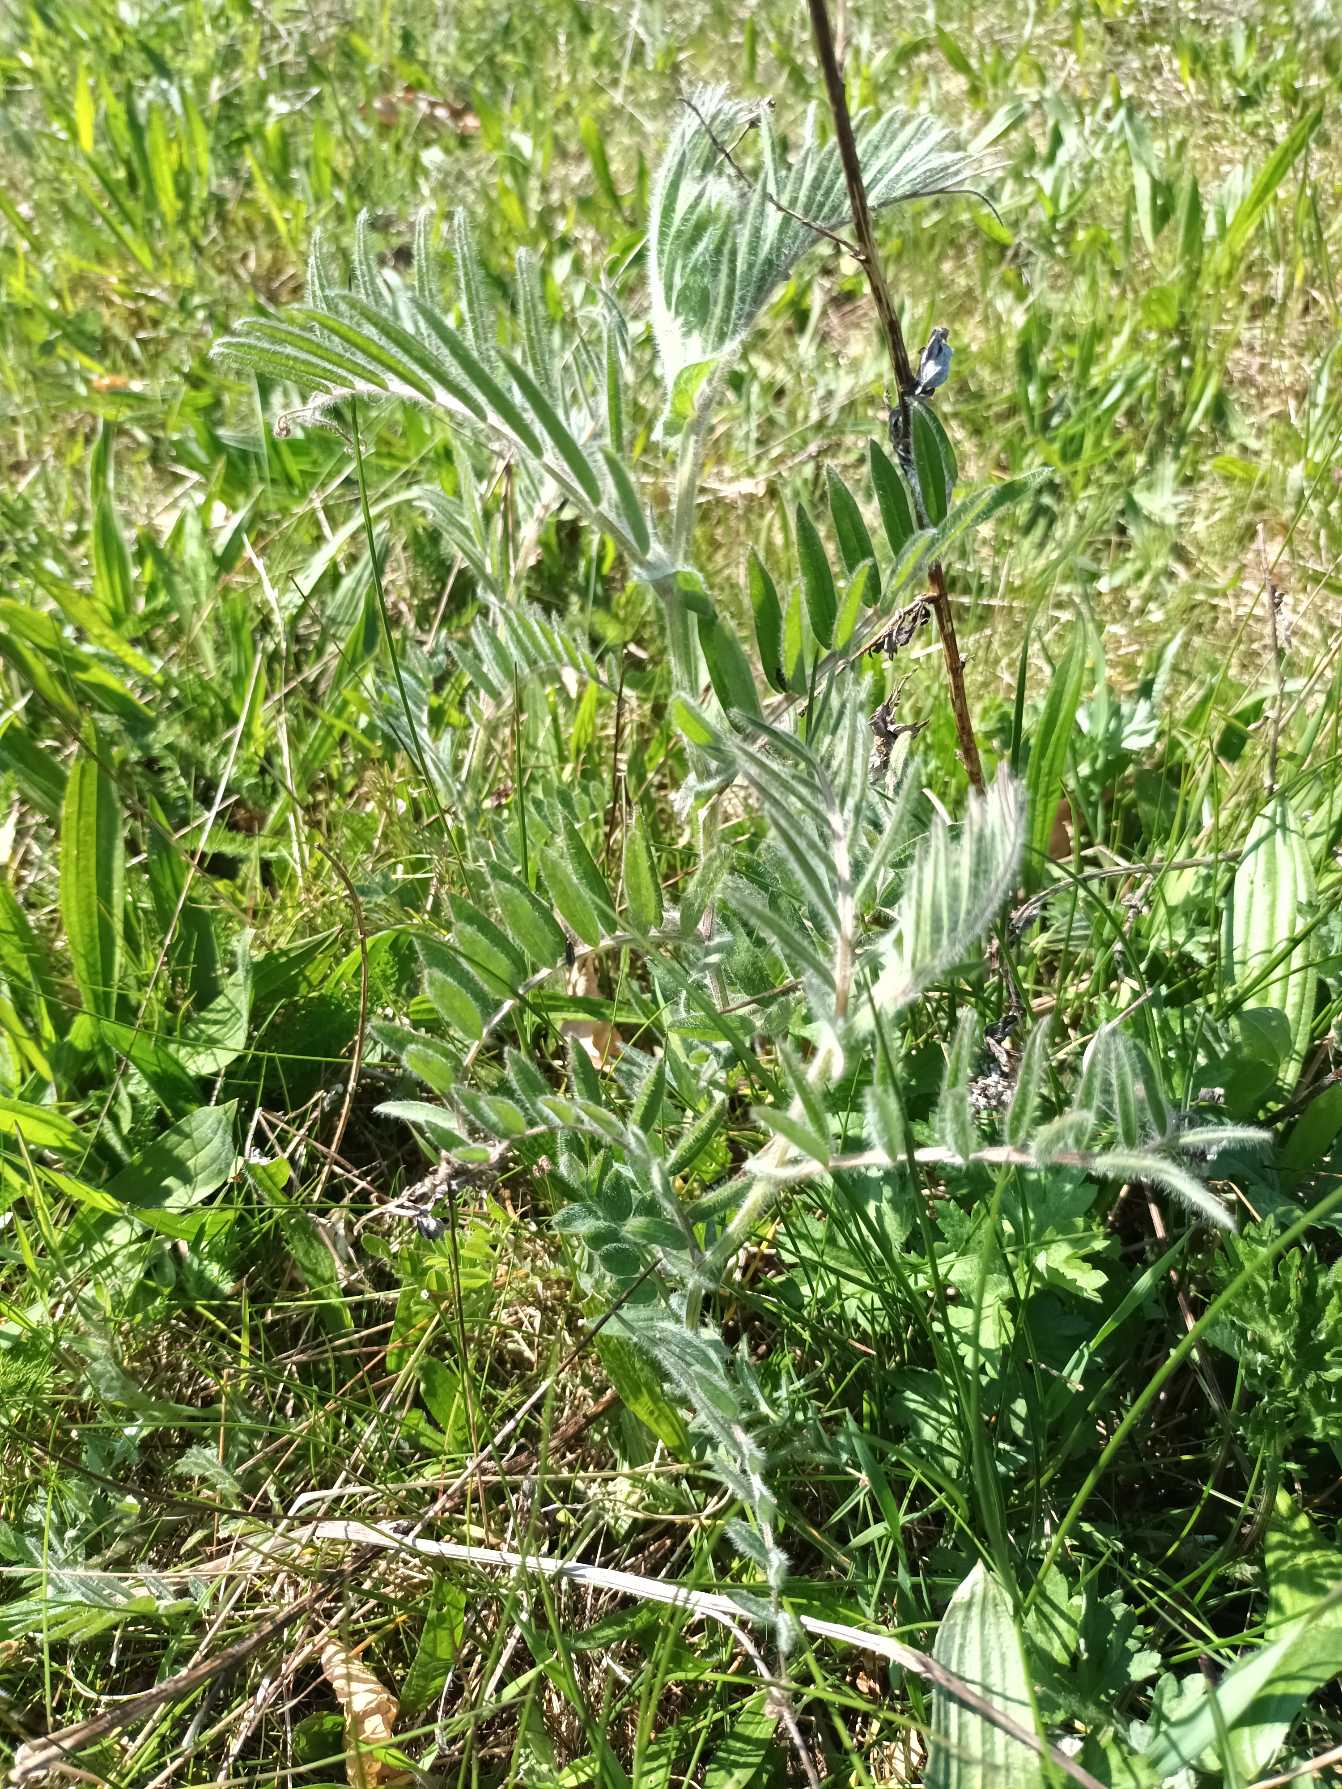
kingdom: Plantae
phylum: Tracheophyta
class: Magnoliopsida
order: Fabales
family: Fabaceae
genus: Vicia
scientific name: Vicia villosa
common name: Sand-vikke
